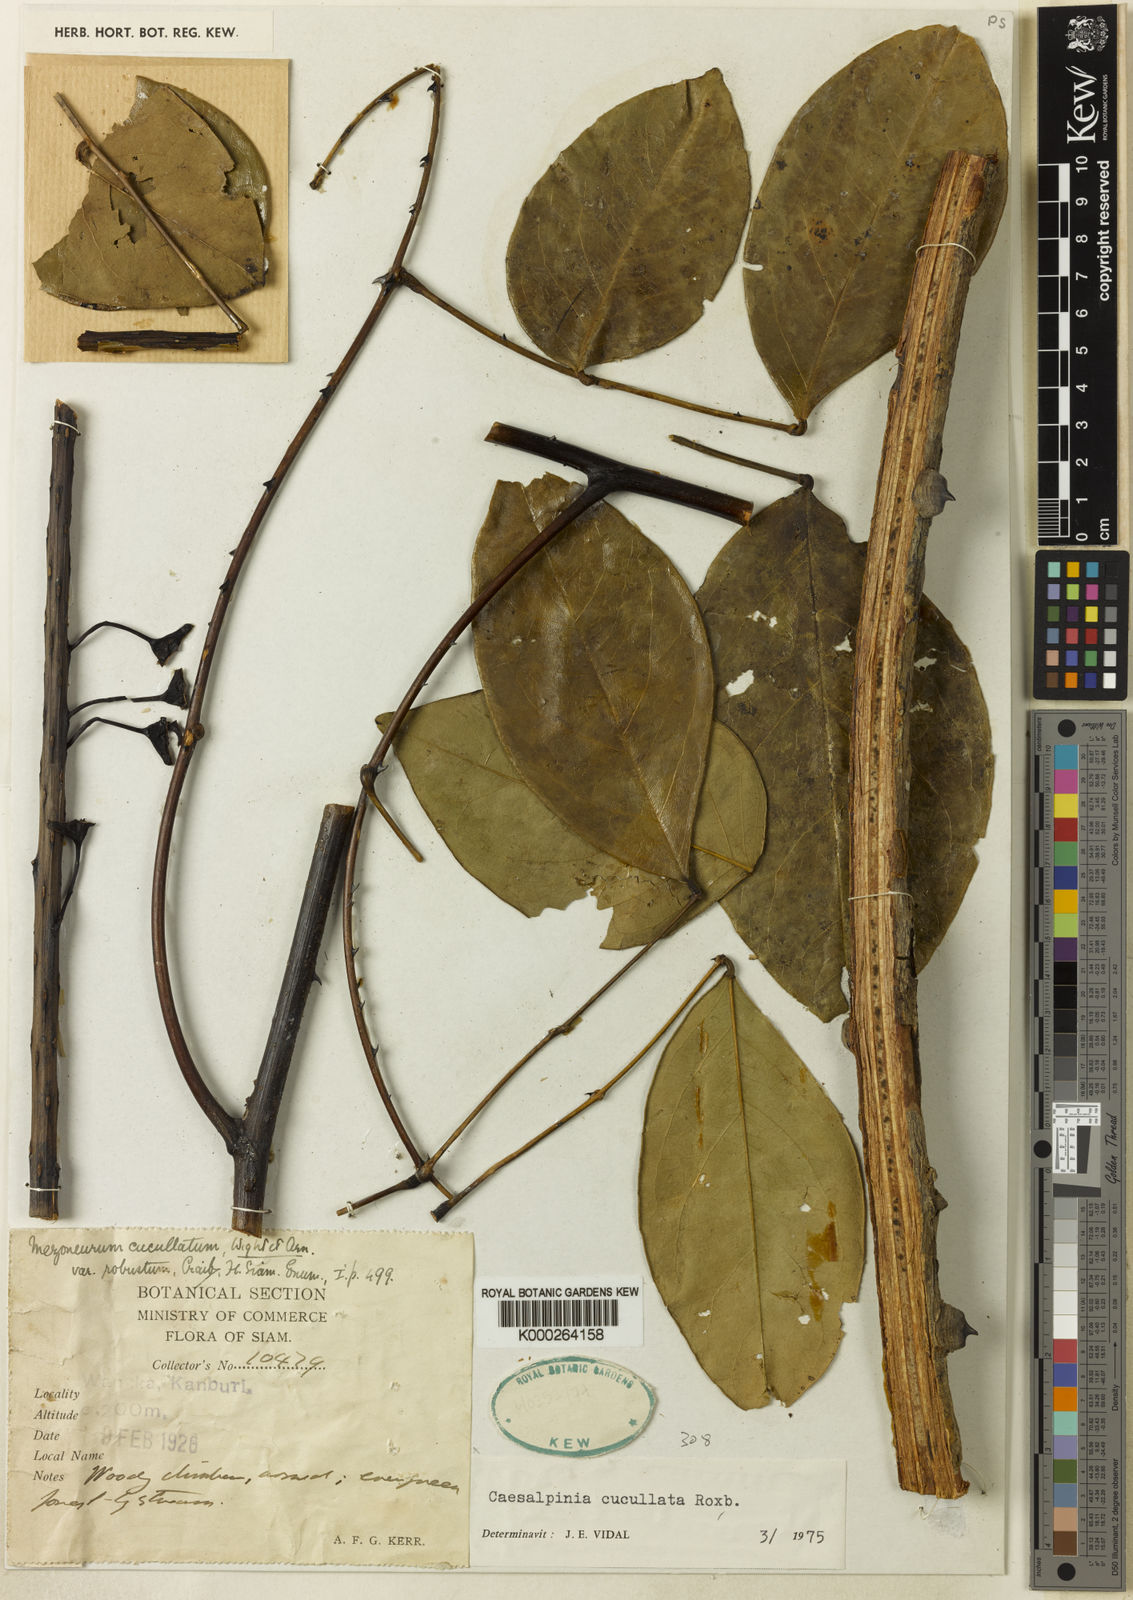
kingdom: Plantae
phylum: Tracheophyta
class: Magnoliopsida
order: Fabales
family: Fabaceae
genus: Mezoneuron
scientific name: Mezoneuron cucullatum
